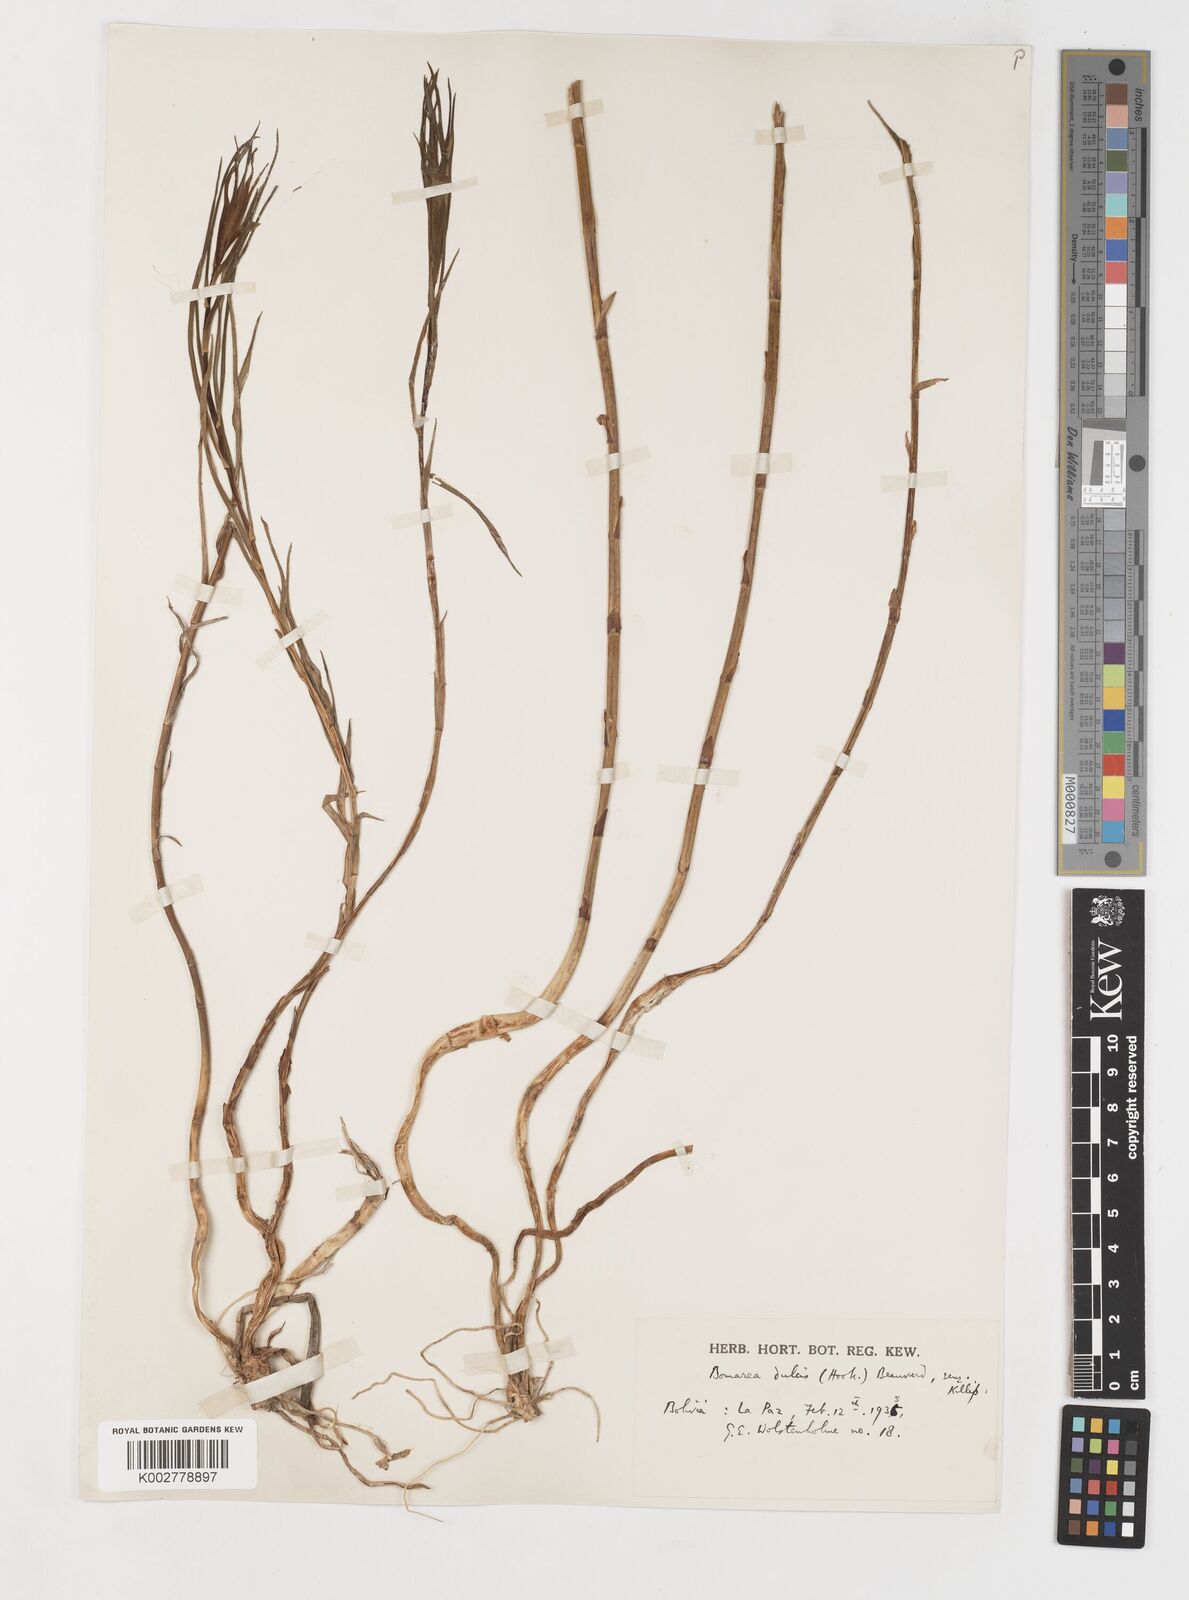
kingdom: Plantae
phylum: Tracheophyta
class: Liliopsida
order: Liliales
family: Alstroemeriaceae
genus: Bomarea
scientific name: Bomarea dulcis
